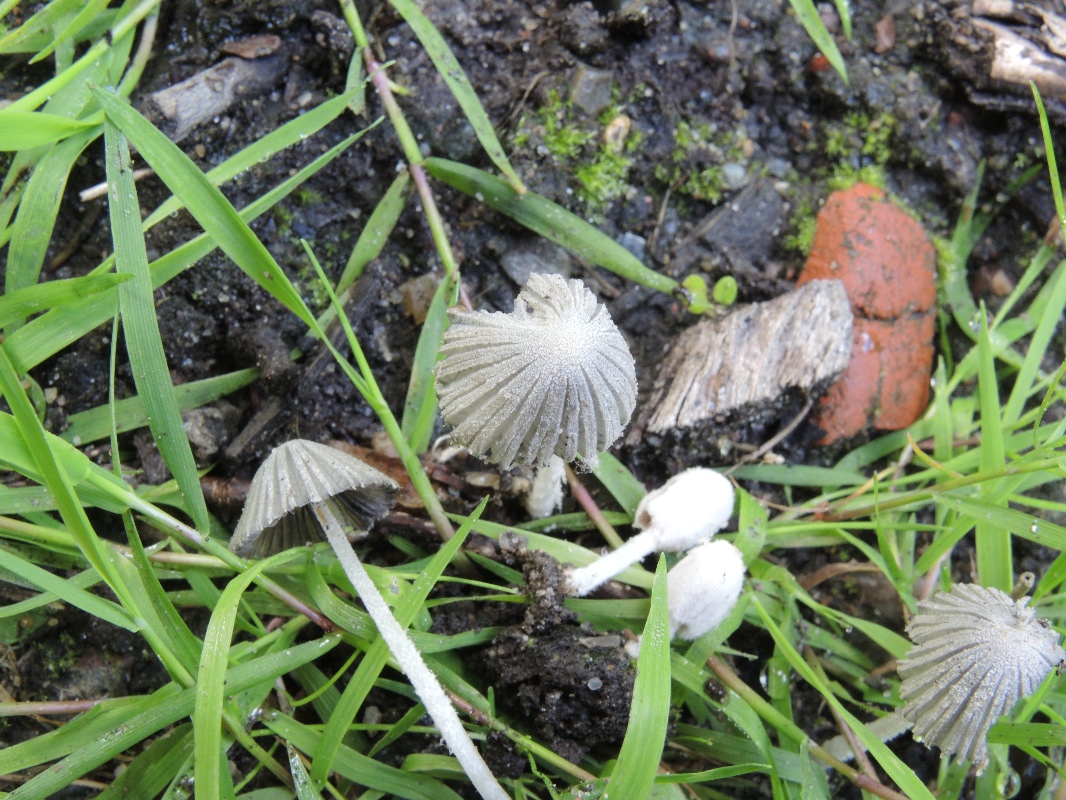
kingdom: Fungi
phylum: Basidiomycota
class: Agaricomycetes
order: Agaricales
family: Psathyrellaceae
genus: Coprinopsis
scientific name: Coprinopsis candidata
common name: hvidklædt blækhat
